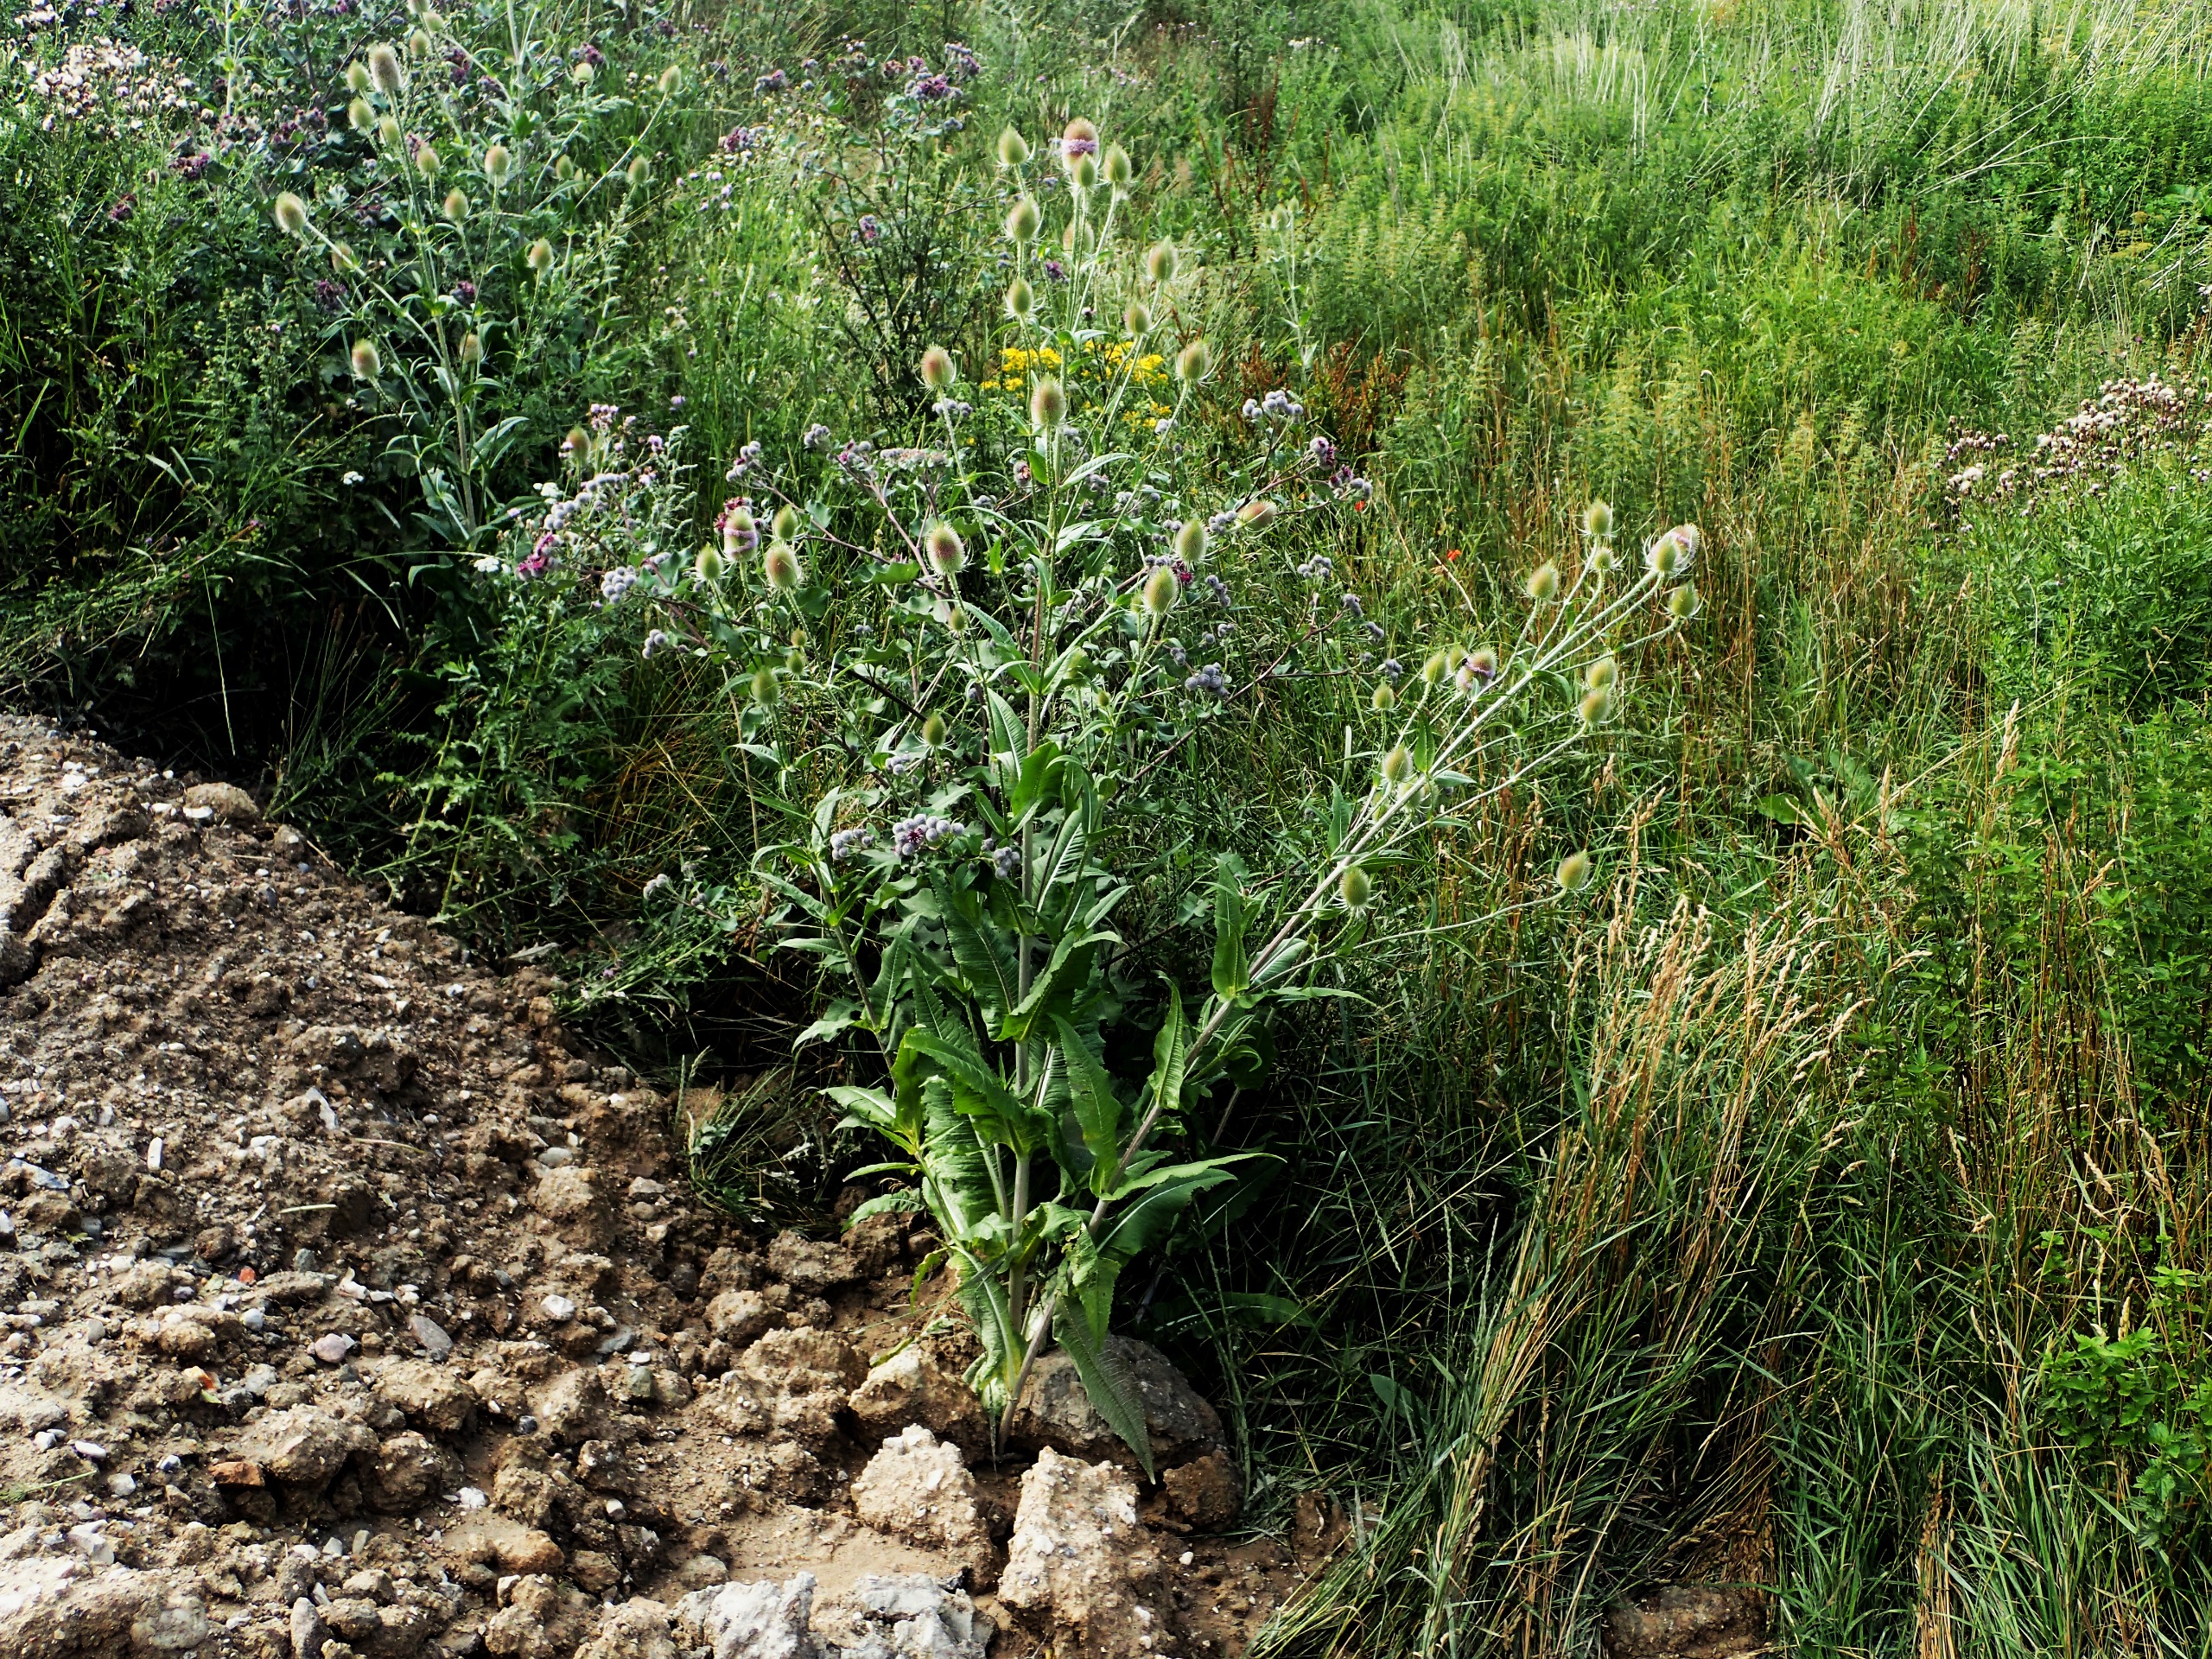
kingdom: Plantae
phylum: Tracheophyta
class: Magnoliopsida
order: Dipsacales
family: Caprifoliaceae
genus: Dipsacus
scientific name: Dipsacus fullonum
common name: Gærde-kartebolle
